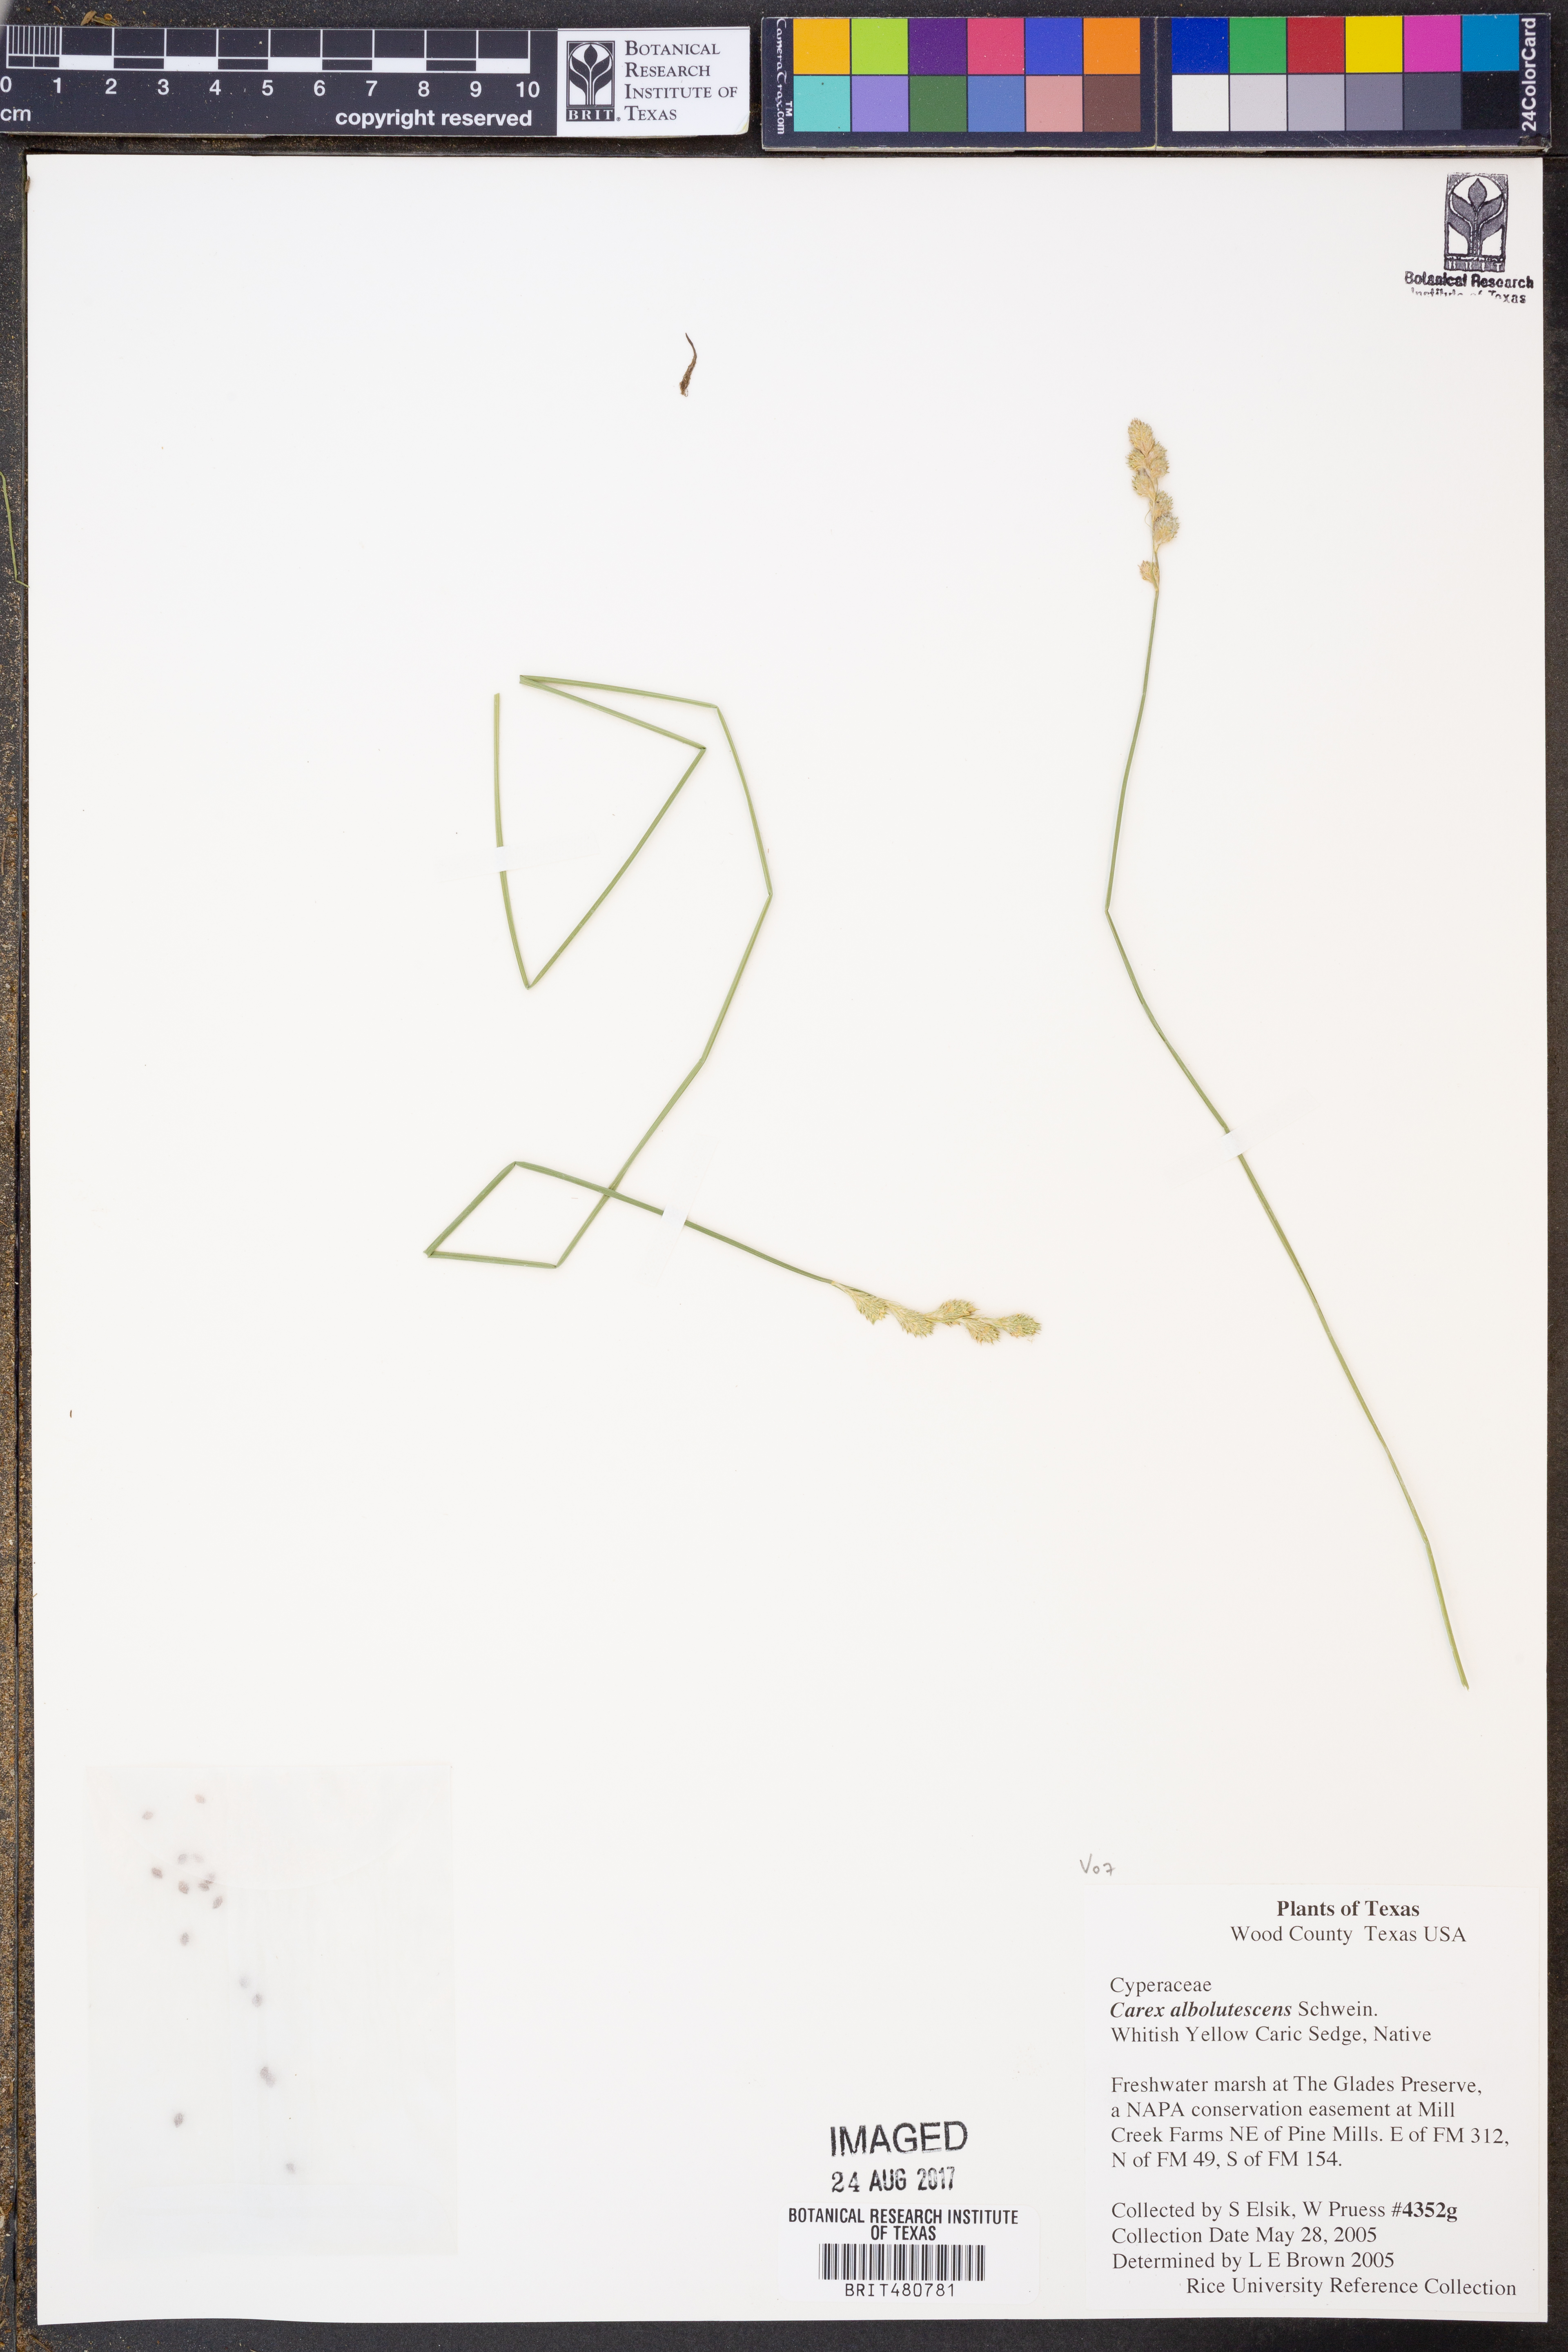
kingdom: Plantae
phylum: Tracheophyta
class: Liliopsida
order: Poales
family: Cyperaceae
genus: Carex
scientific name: Carex albolutescens
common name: Freenish white sedge
